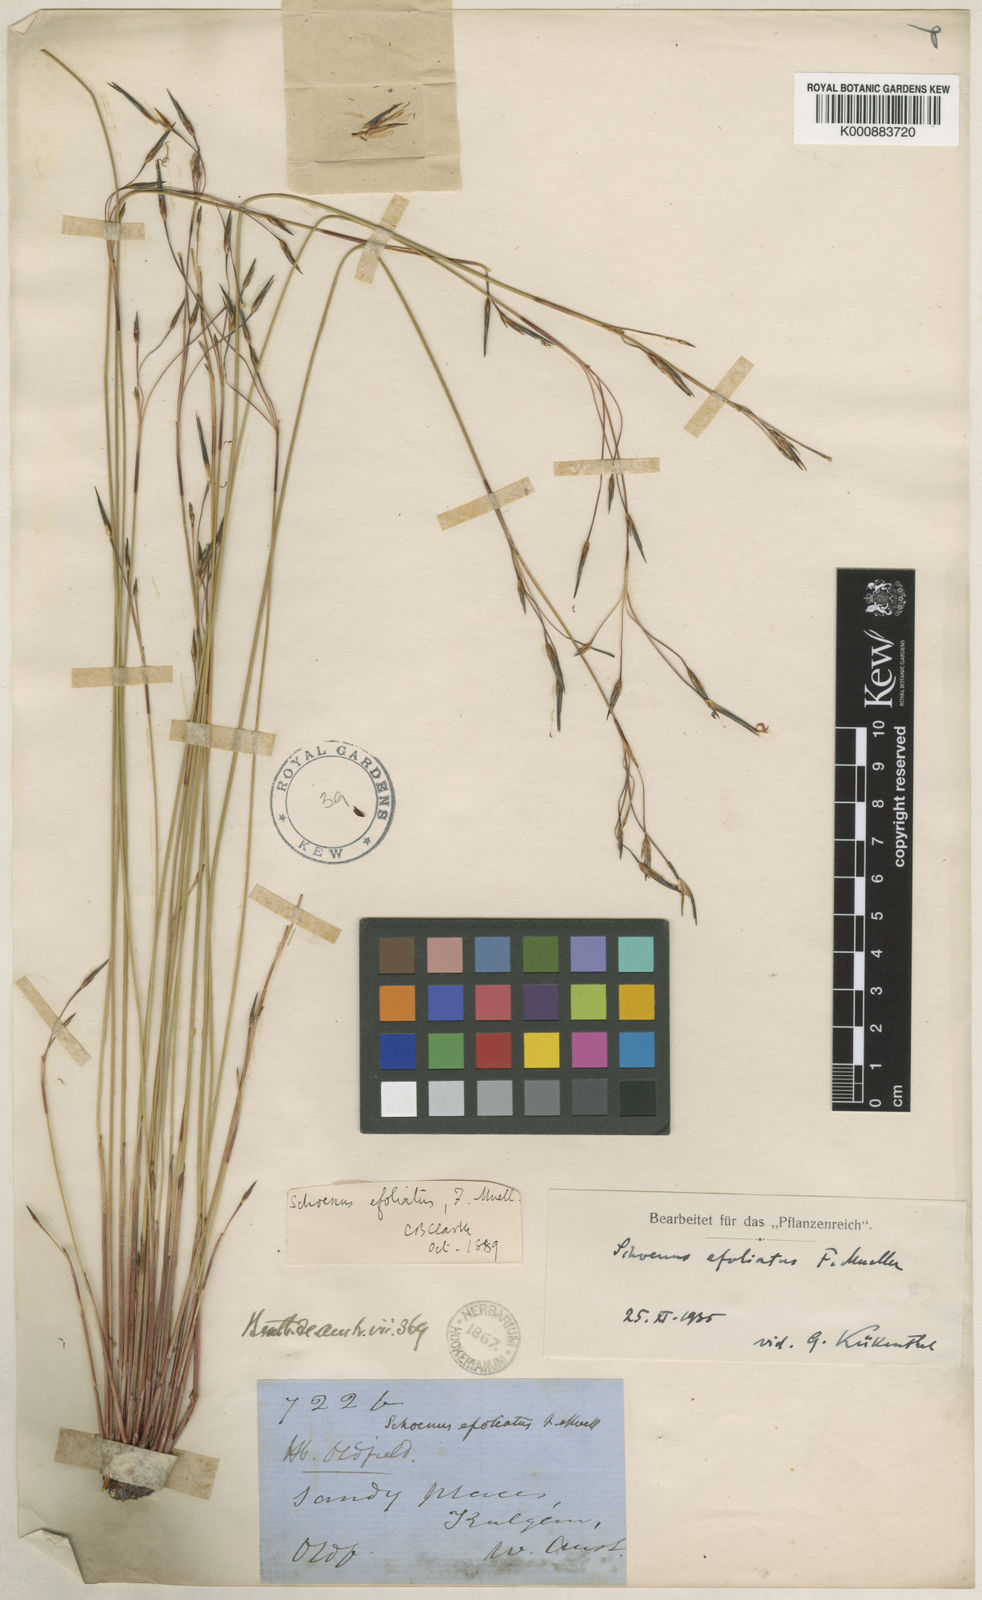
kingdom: Plantae
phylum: Tracheophyta
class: Liliopsida
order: Poales
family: Cyperaceae
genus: Schoenus
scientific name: Schoenus efoliatus
